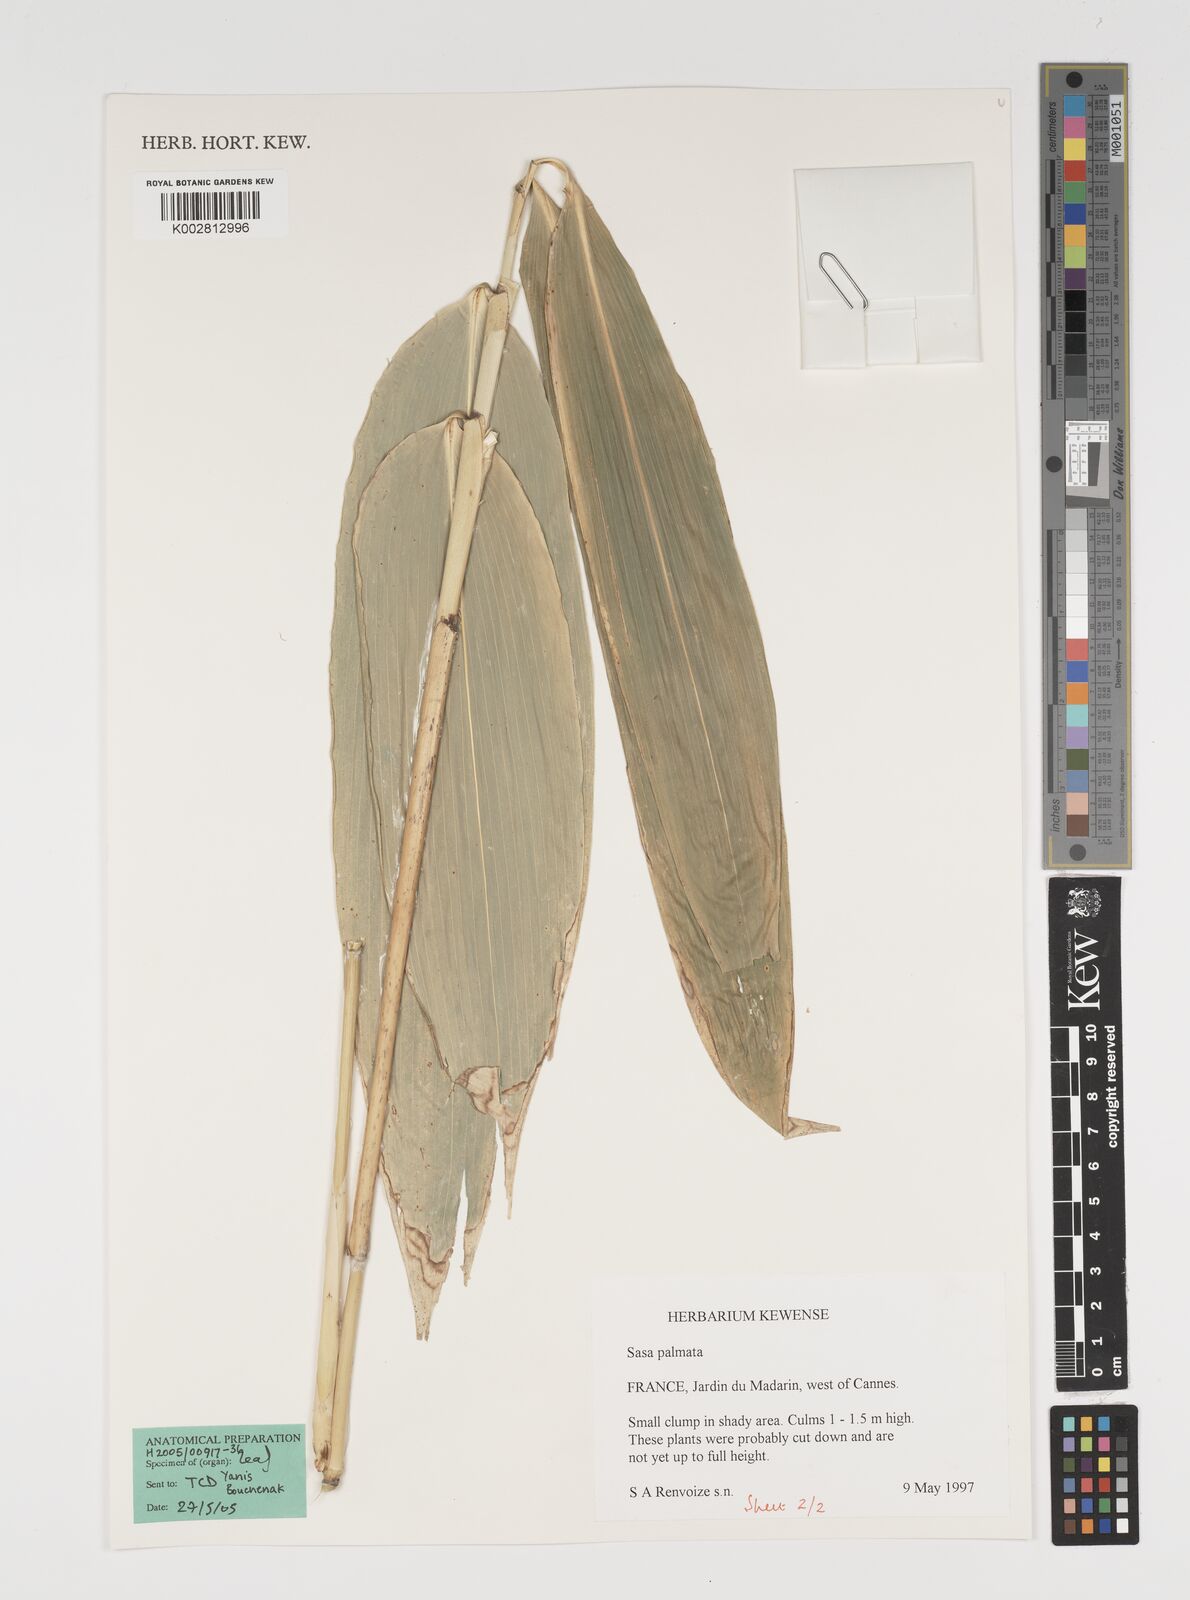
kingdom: Plantae
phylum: Tracheophyta
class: Liliopsida
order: Poales
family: Poaceae
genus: Sasa
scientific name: Sasa palmata
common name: Broad-leaved bamboo
